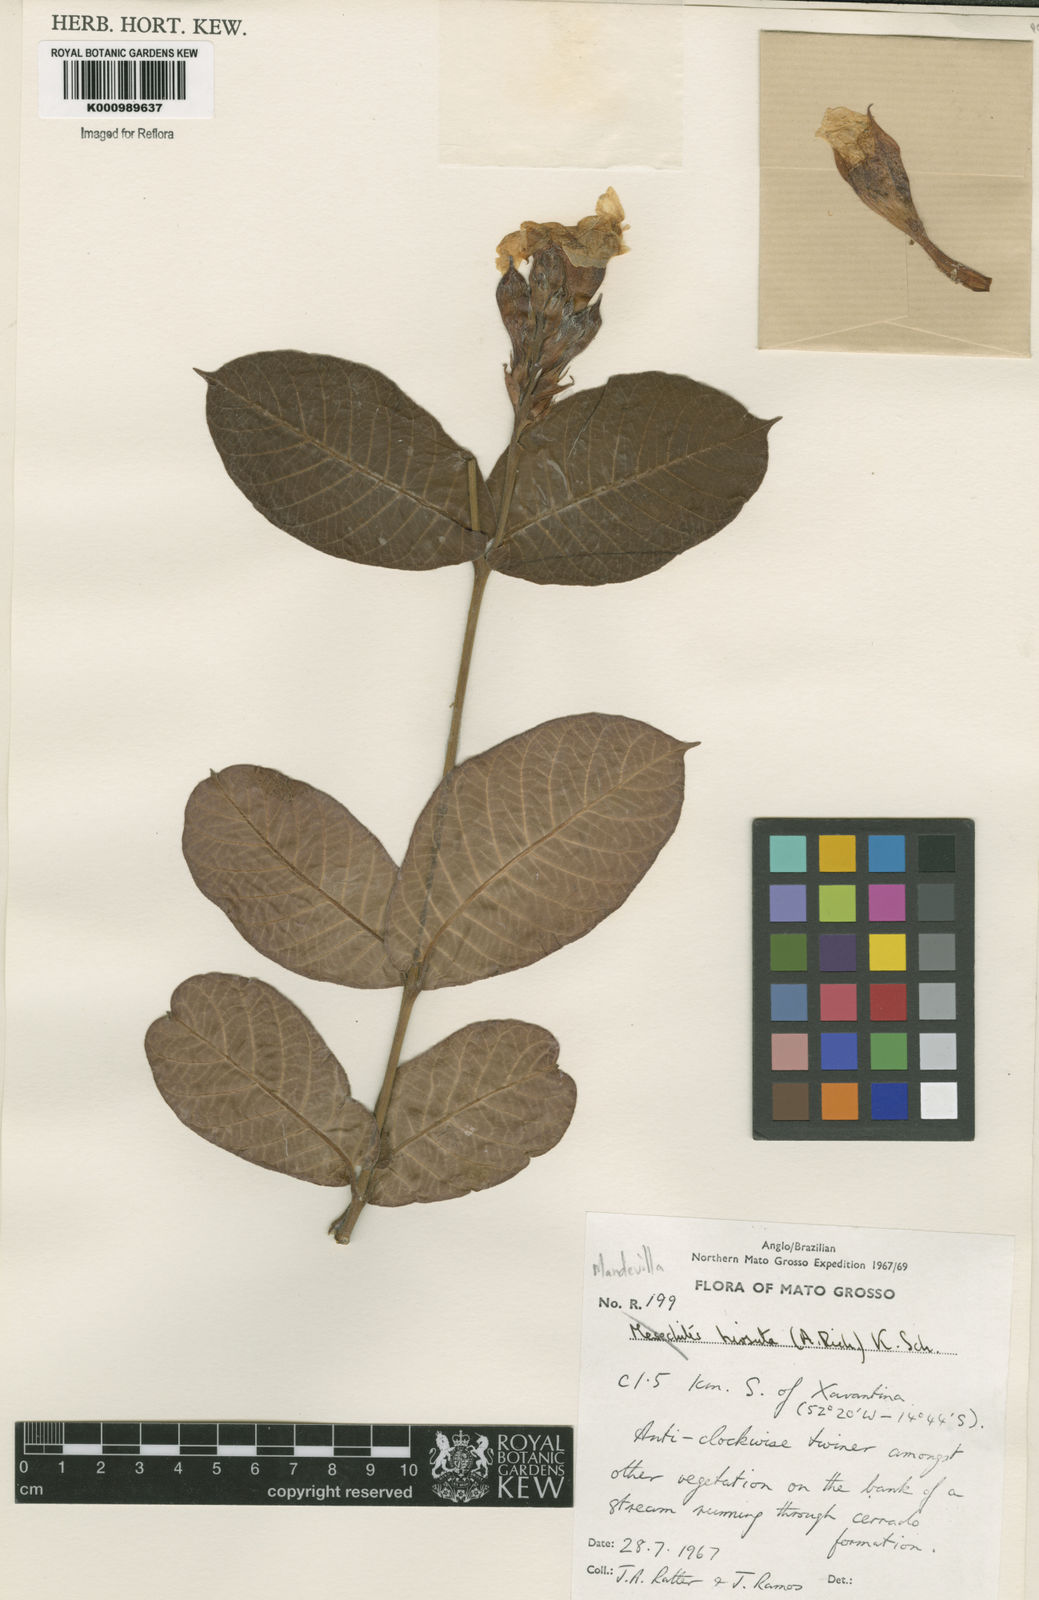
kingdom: Plantae
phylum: Tracheophyta
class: Magnoliopsida
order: Gentianales
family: Apocynaceae
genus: Mandevilla
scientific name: Mandevilla hirsuta
